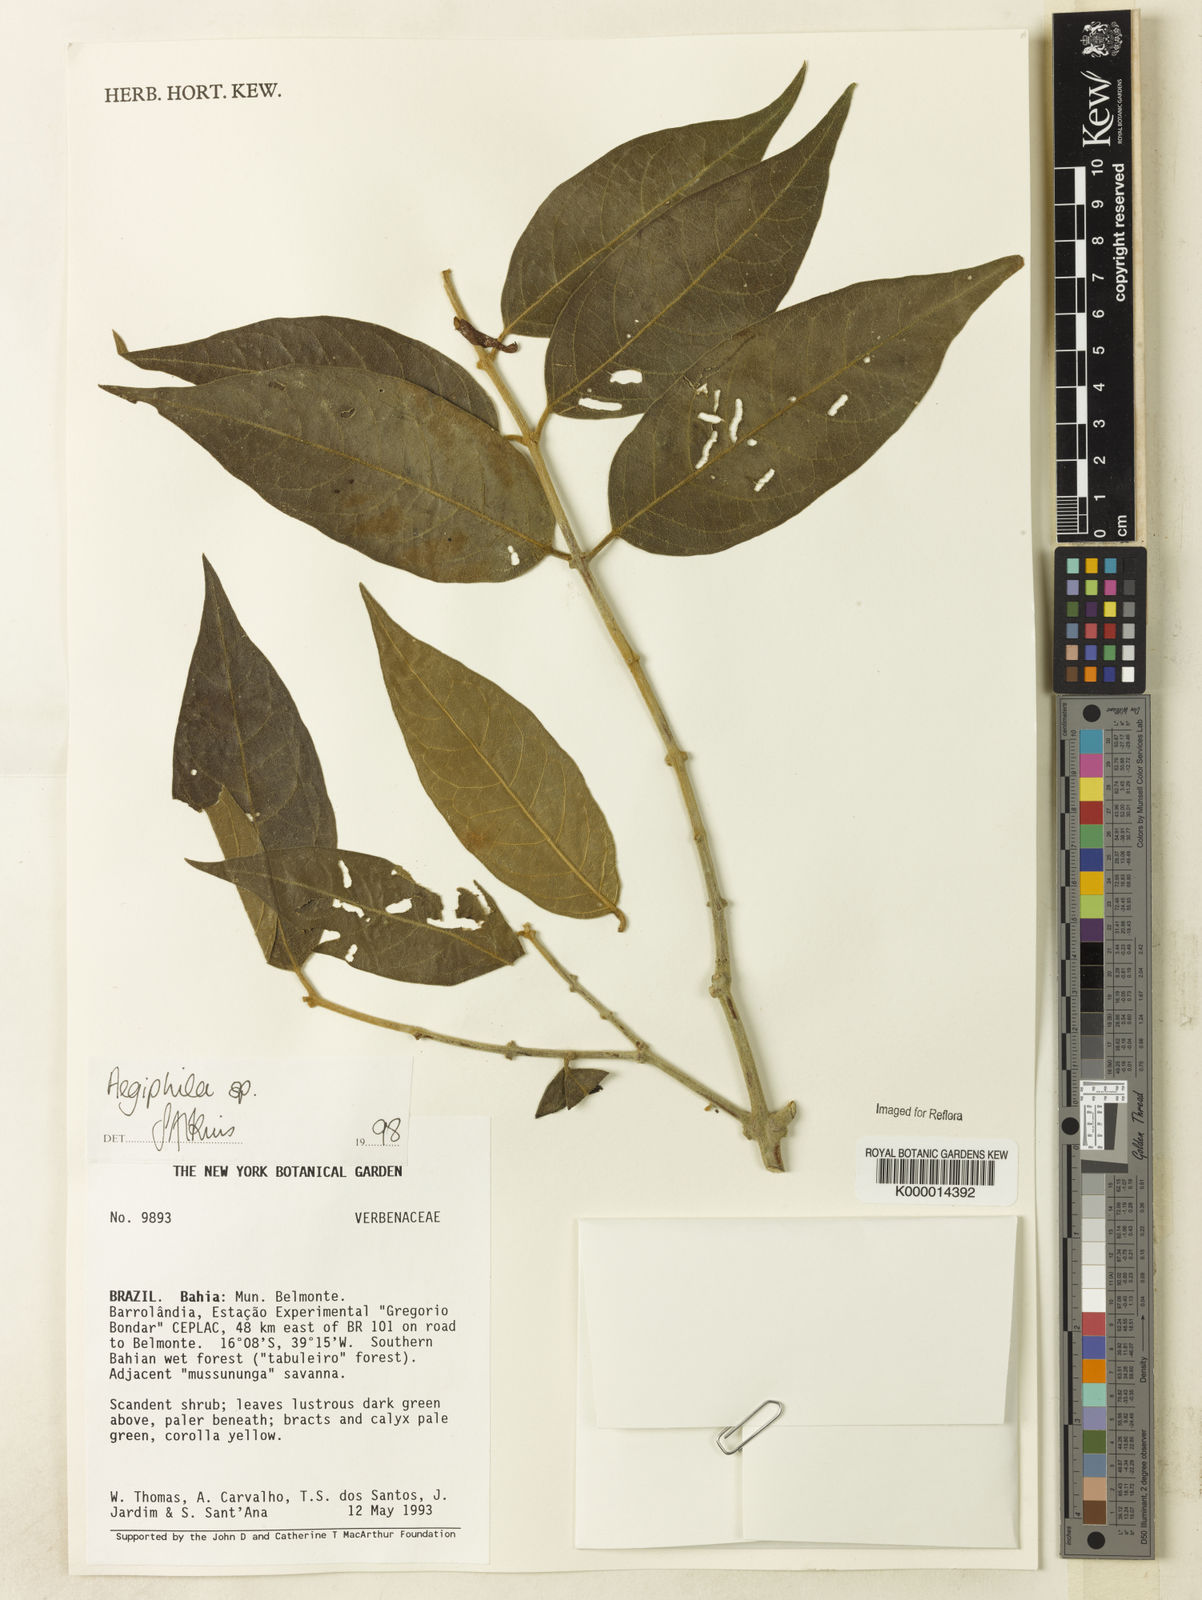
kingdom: Plantae
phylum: Tracheophyta
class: Magnoliopsida
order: Lamiales
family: Lamiaceae
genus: Aegiphila
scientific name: Aegiphila
